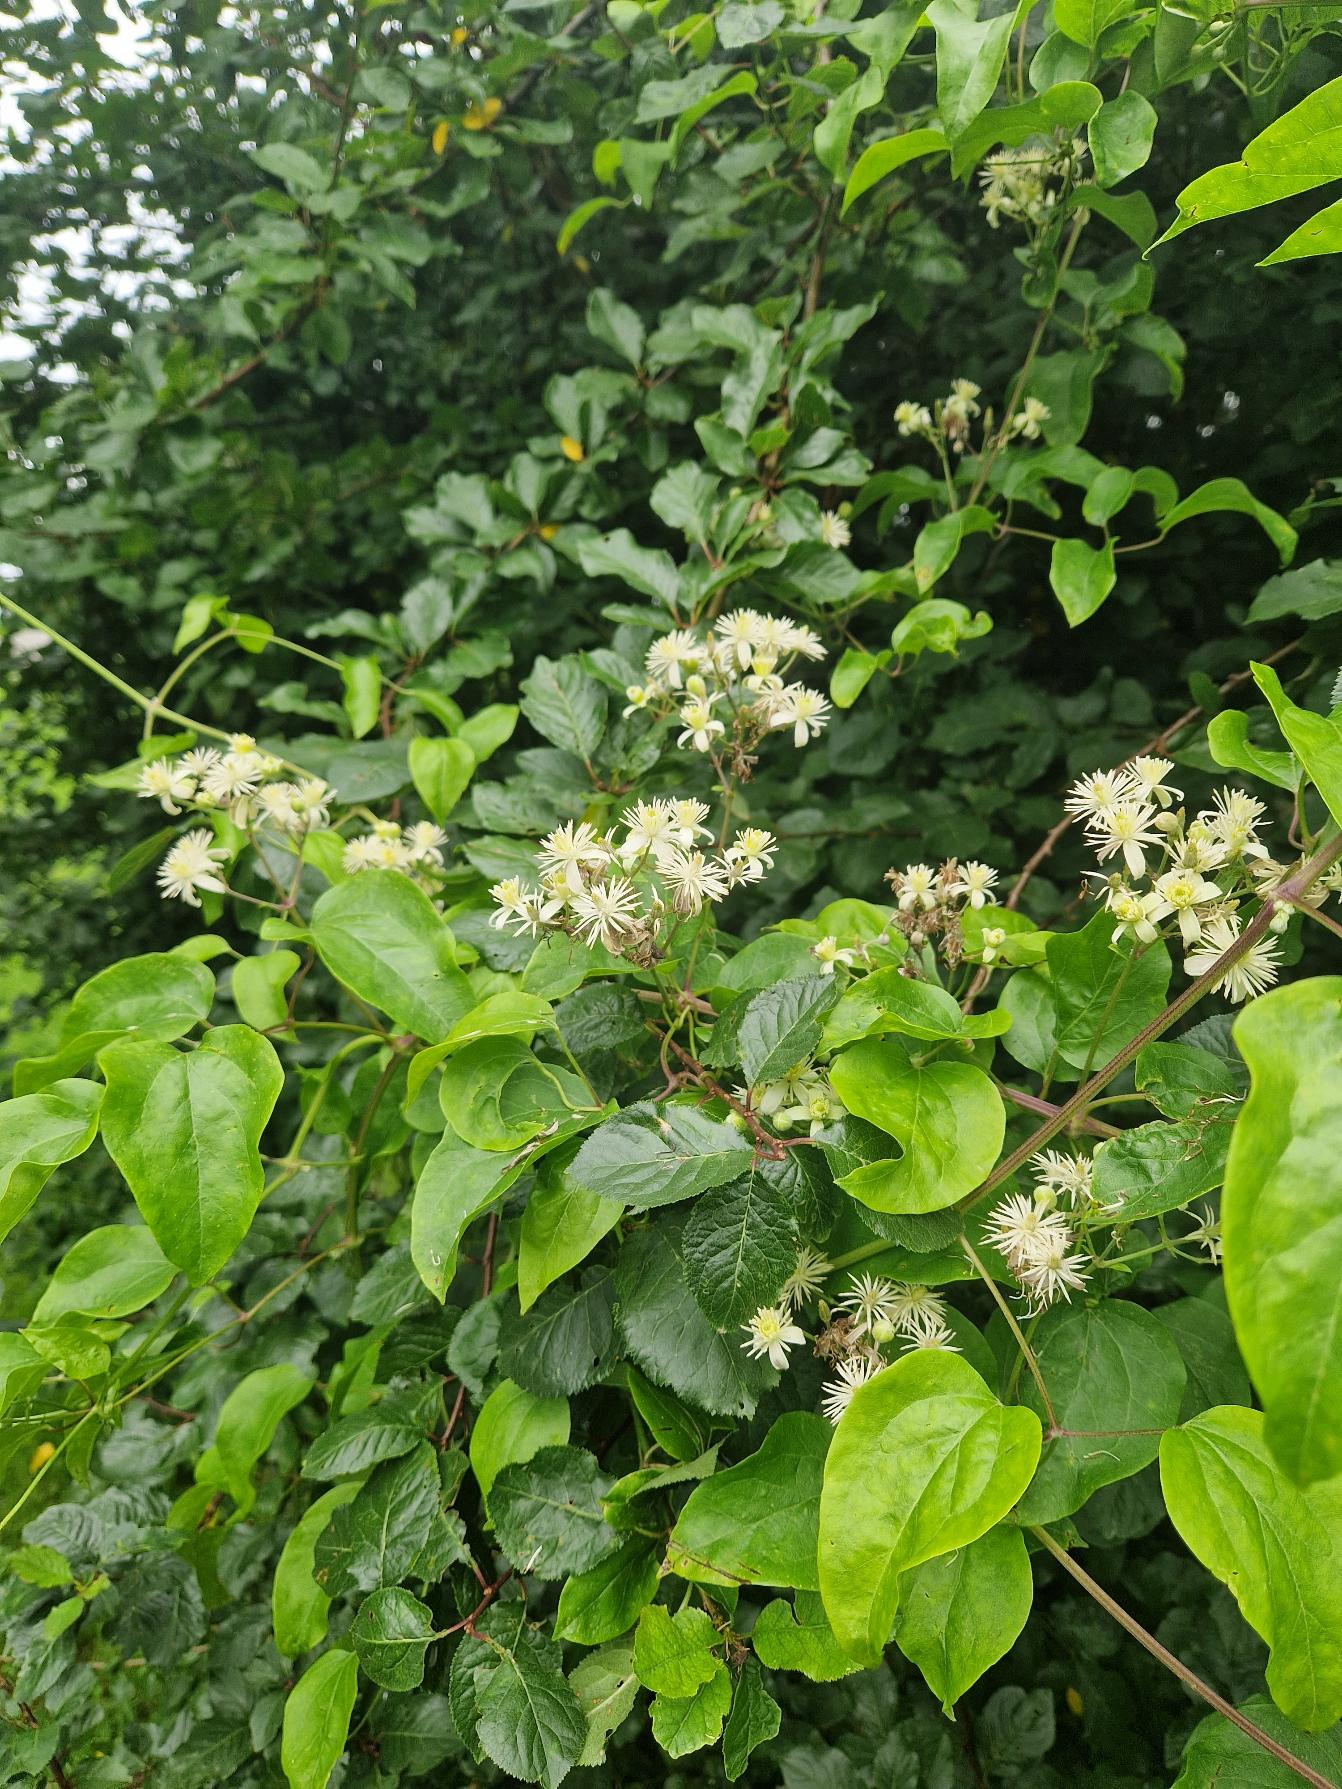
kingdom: Plantae
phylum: Tracheophyta
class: Magnoliopsida
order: Ranunculales
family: Ranunculaceae
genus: Clematis
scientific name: Clematis vitalba
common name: Skovranke
